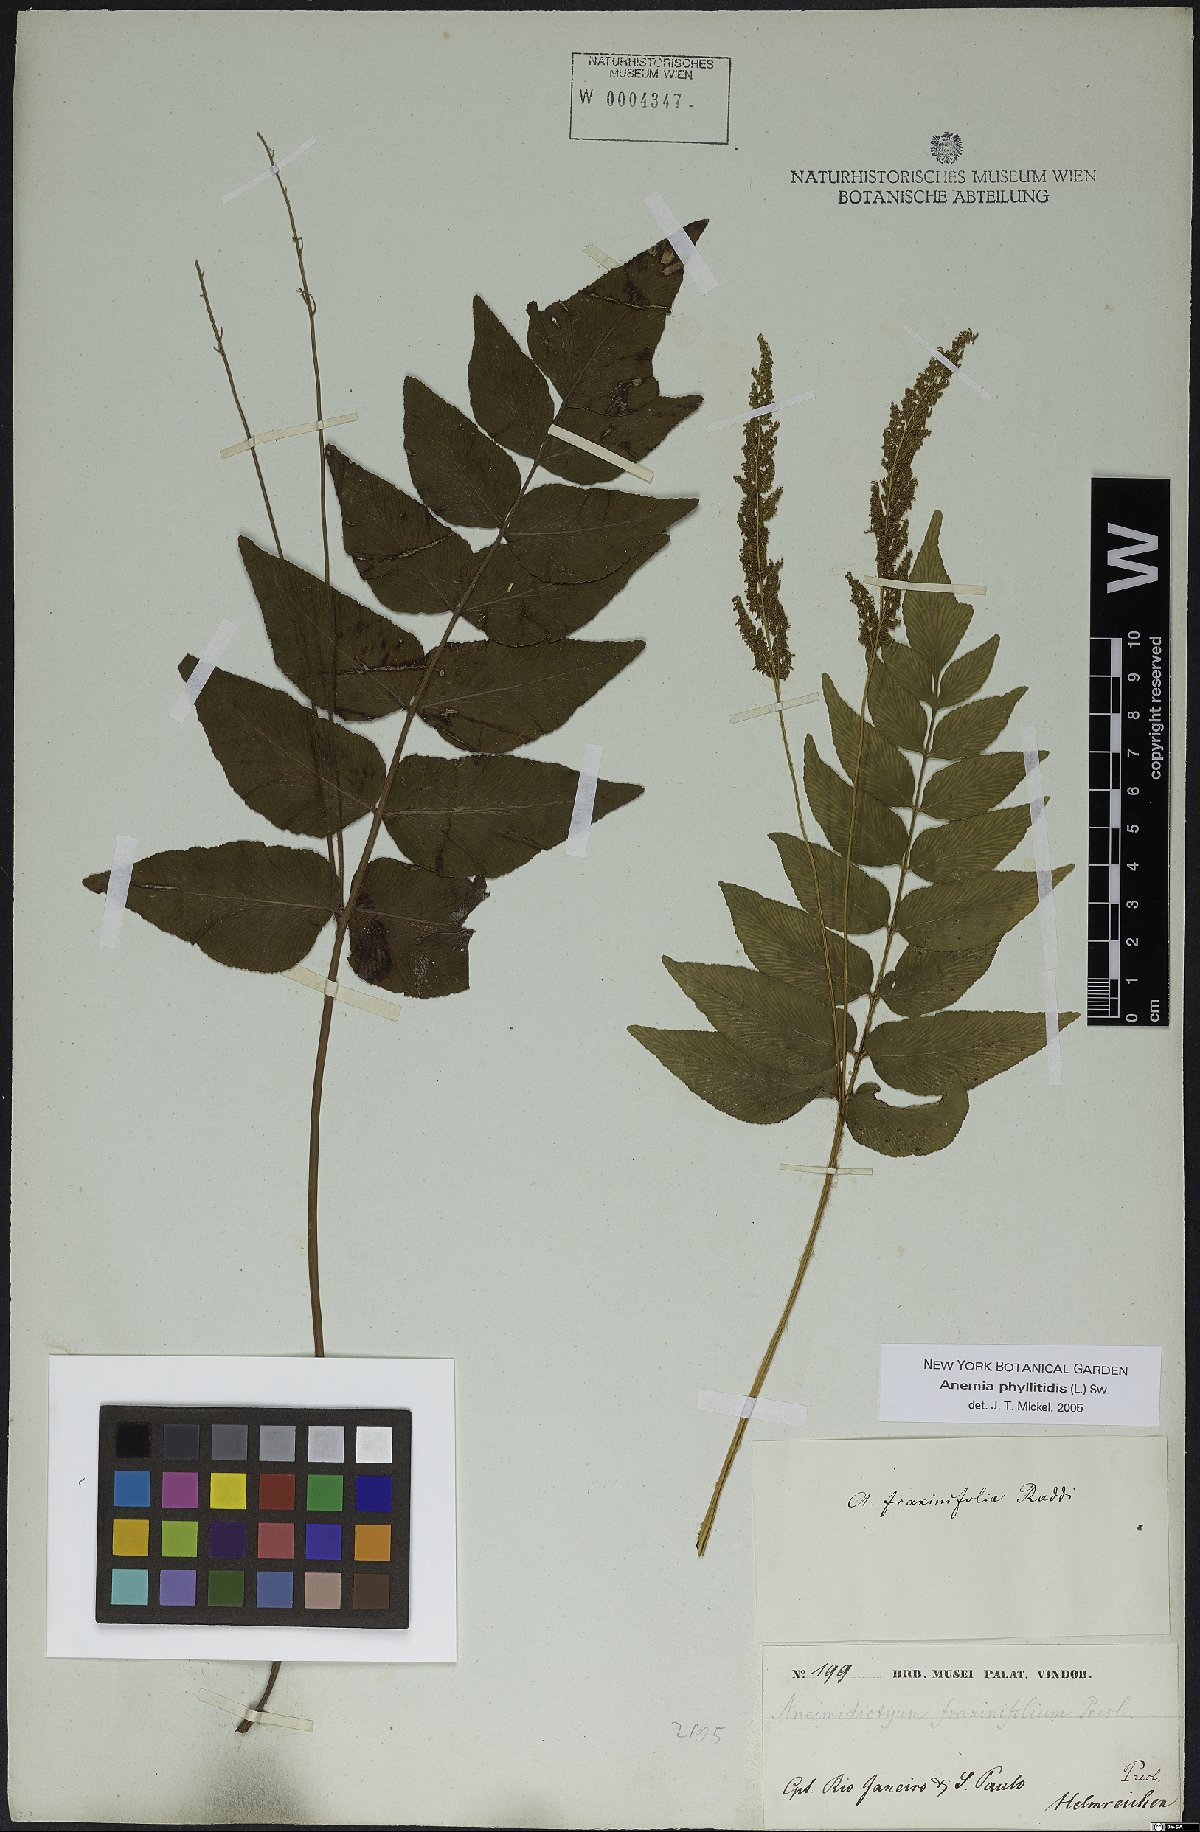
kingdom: Plantae
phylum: Tracheophyta
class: Polypodiopsida
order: Schizaeales
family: Anemiaceae
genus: Anemia
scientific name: Anemia phyllitidis
